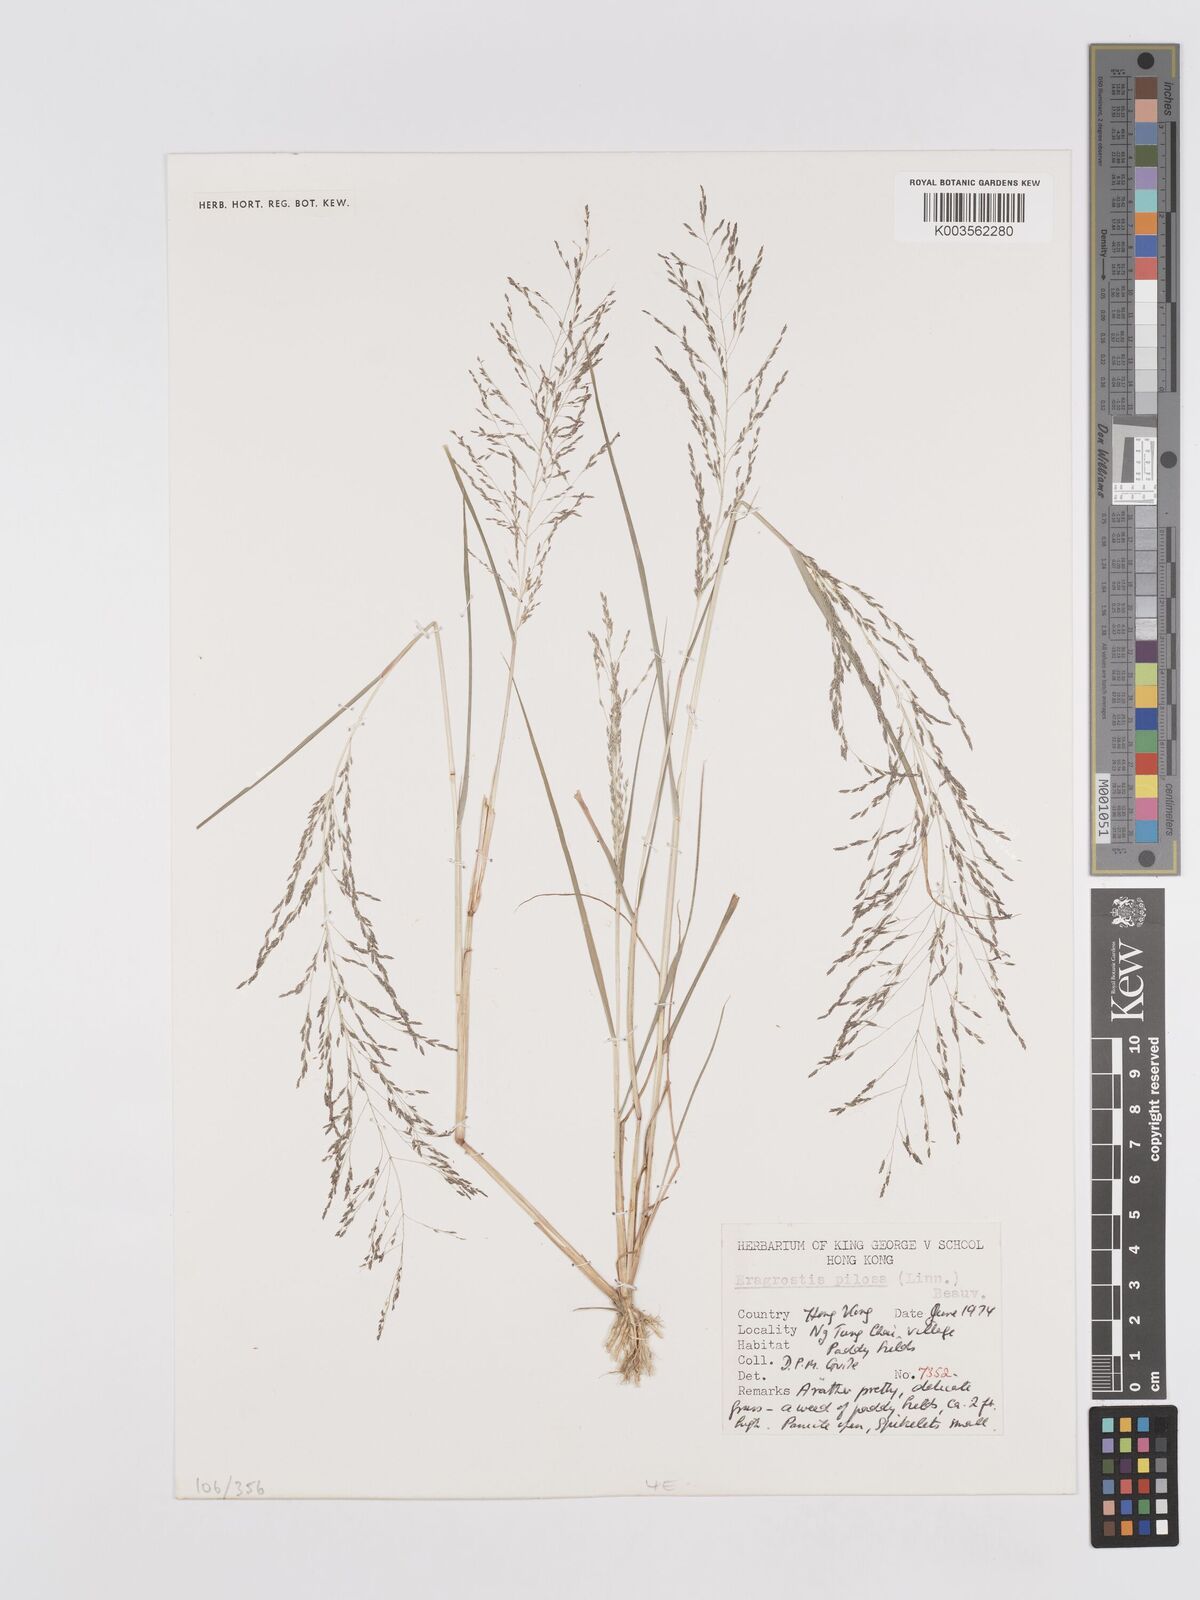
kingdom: Plantae
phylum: Tracheophyta
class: Liliopsida
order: Poales
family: Poaceae
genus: Eragrostis
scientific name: Eragrostis pilosa
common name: Indian lovegrass
